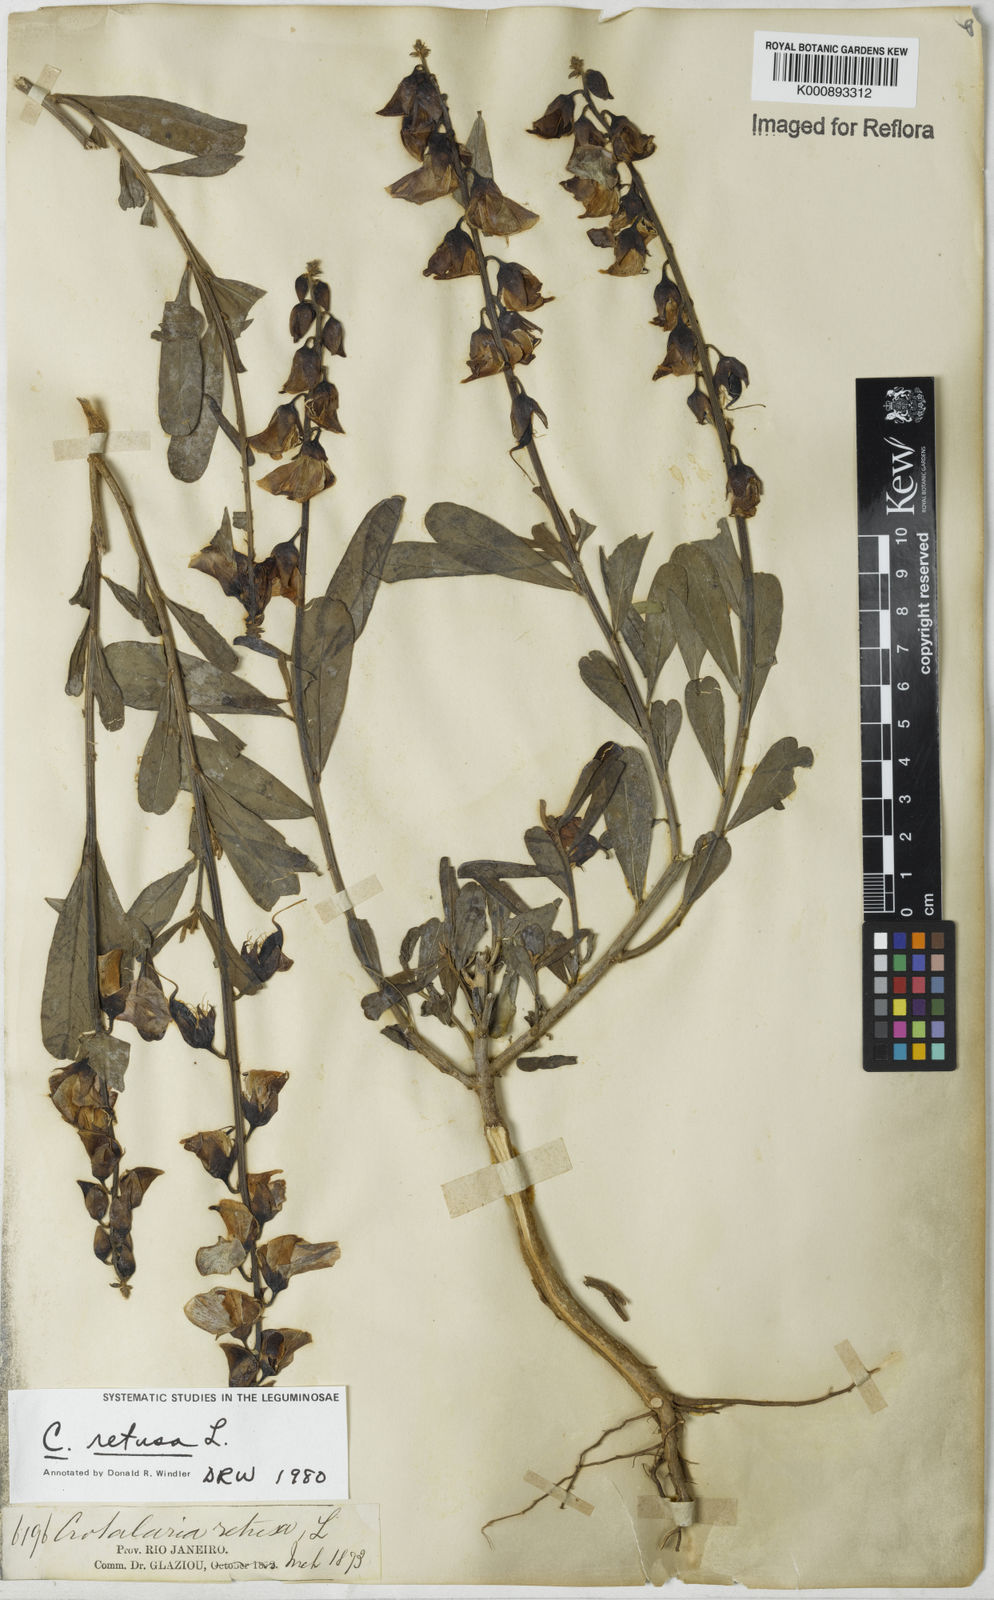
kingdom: Plantae
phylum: Tracheophyta
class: Magnoliopsida
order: Fabales
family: Fabaceae
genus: Crotalaria
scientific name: Crotalaria retusa
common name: Rattleweed
